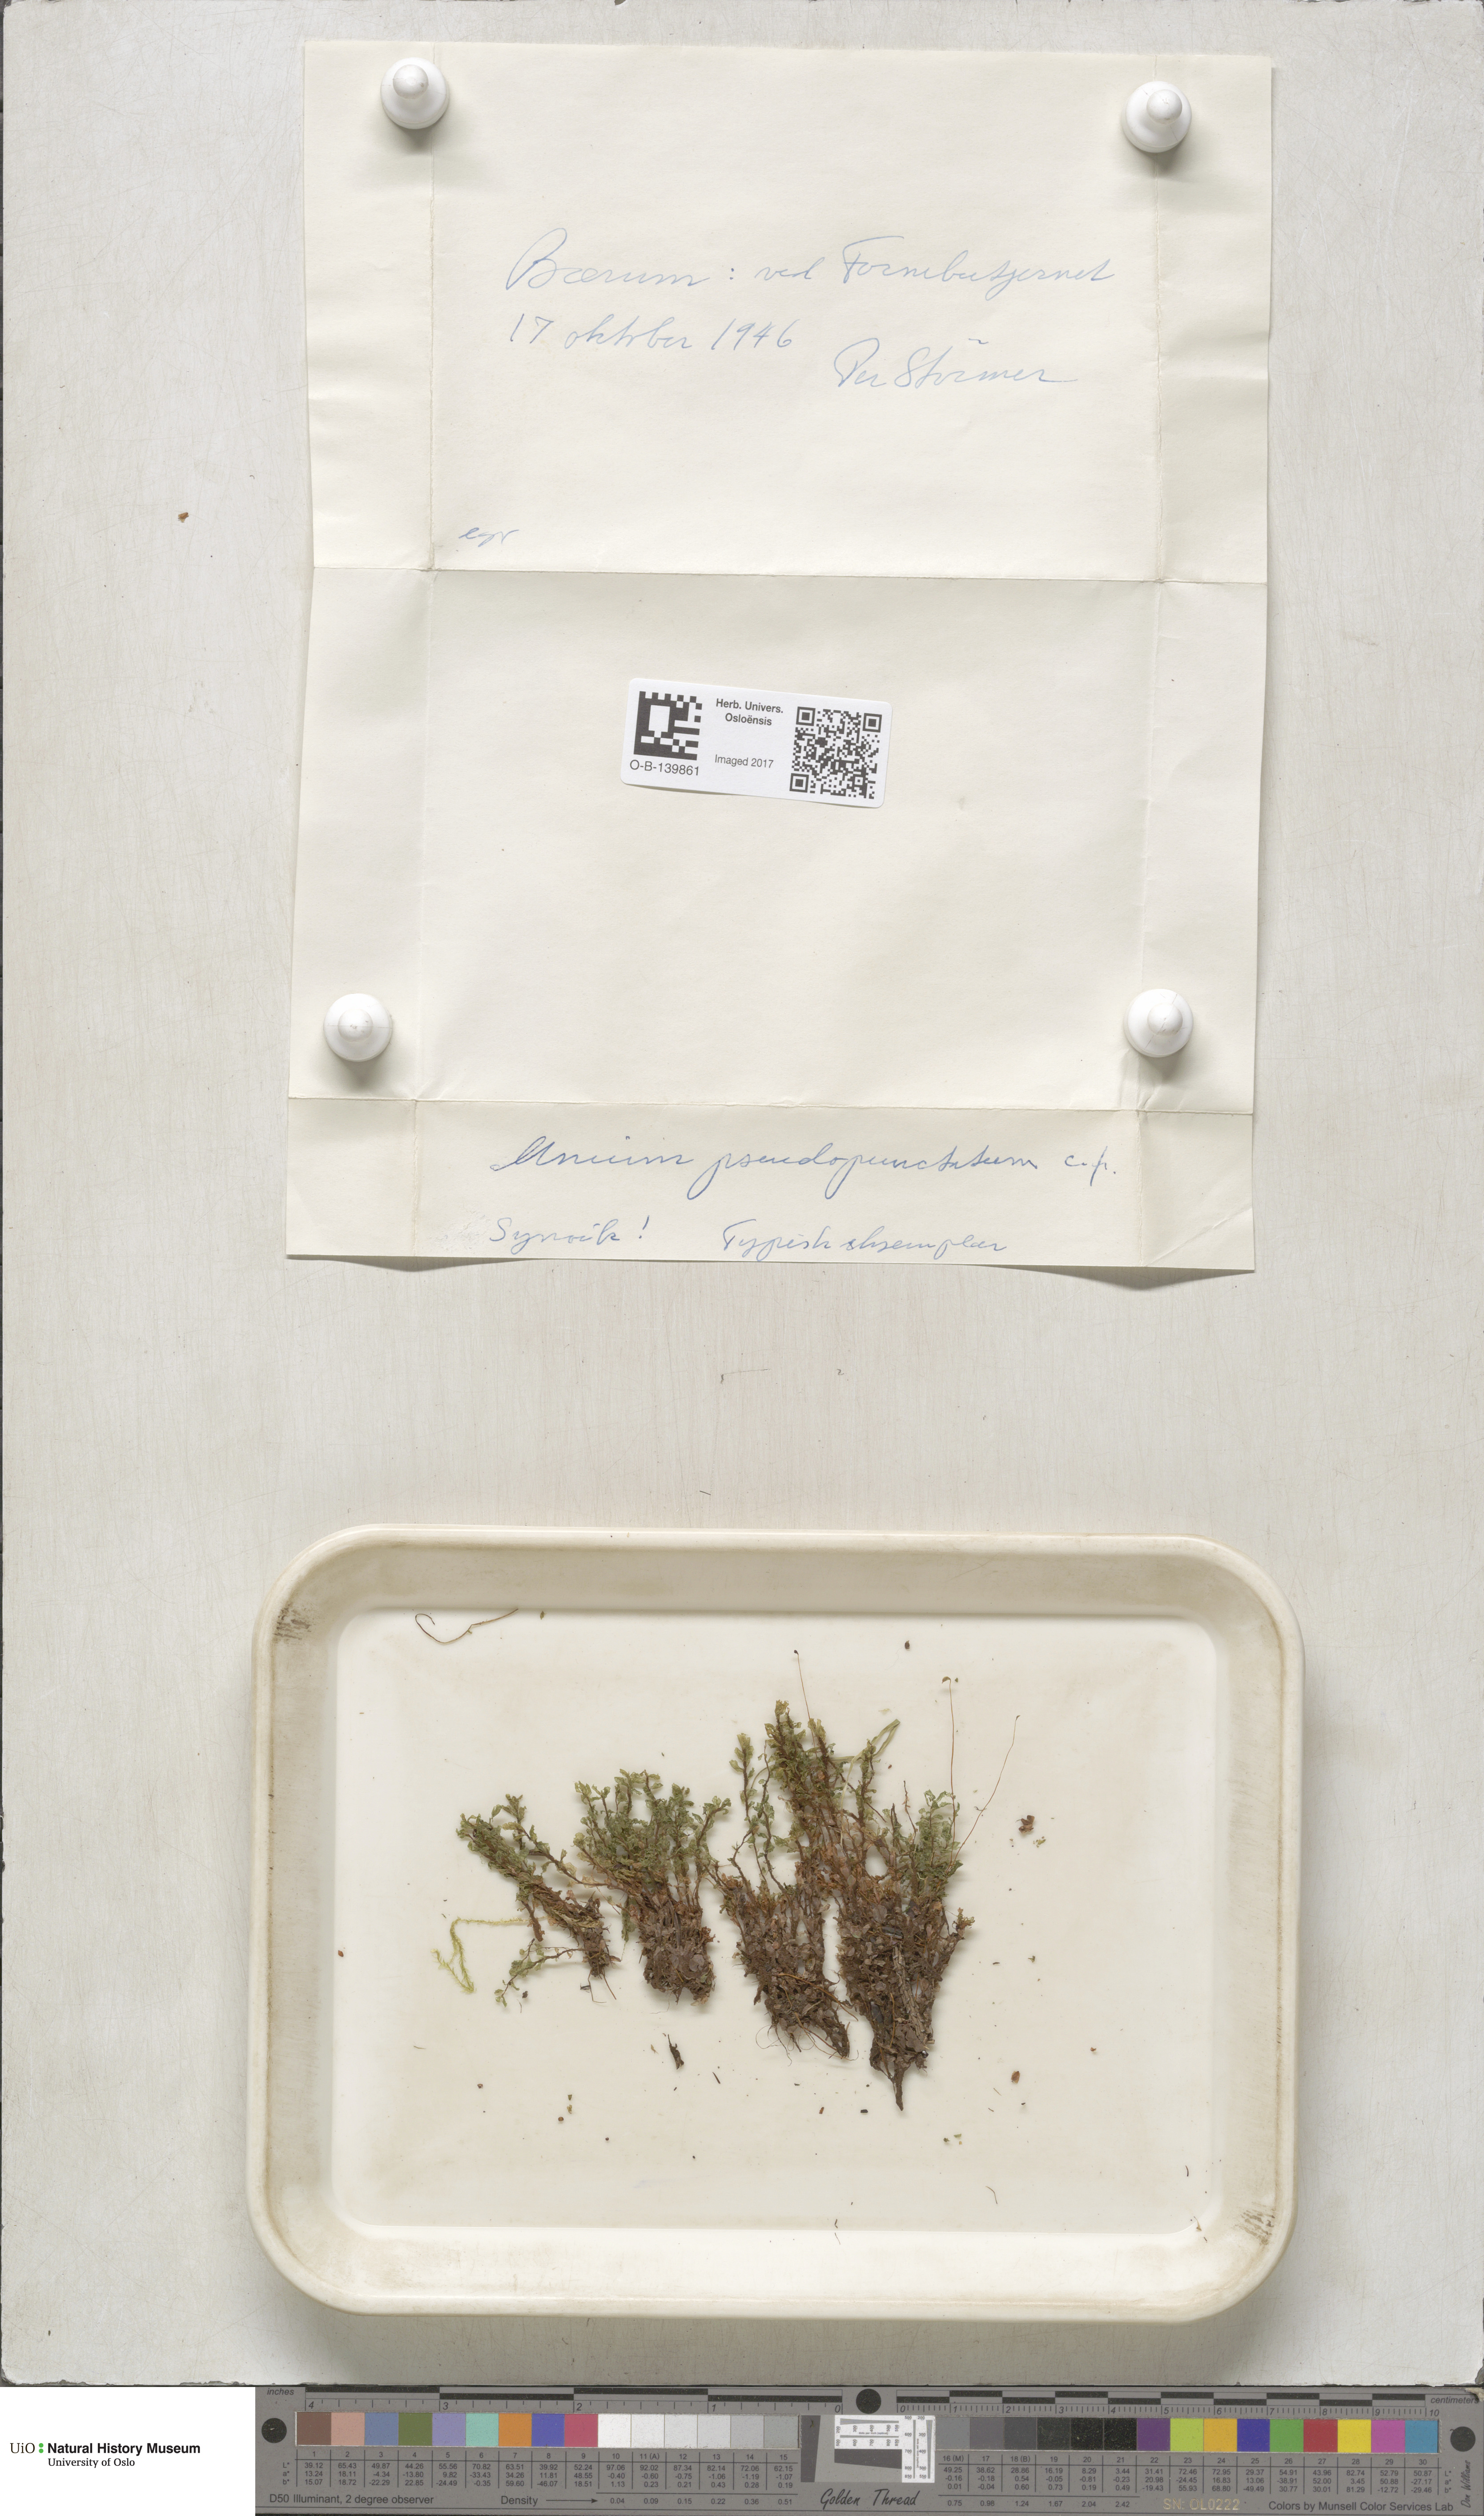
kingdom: Plantae
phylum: Bryophyta
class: Bryopsida
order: Bryales
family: Mniaceae
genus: Rhizomnium
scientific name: Rhizomnium pseudopunctatum
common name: Felted leafy moss
